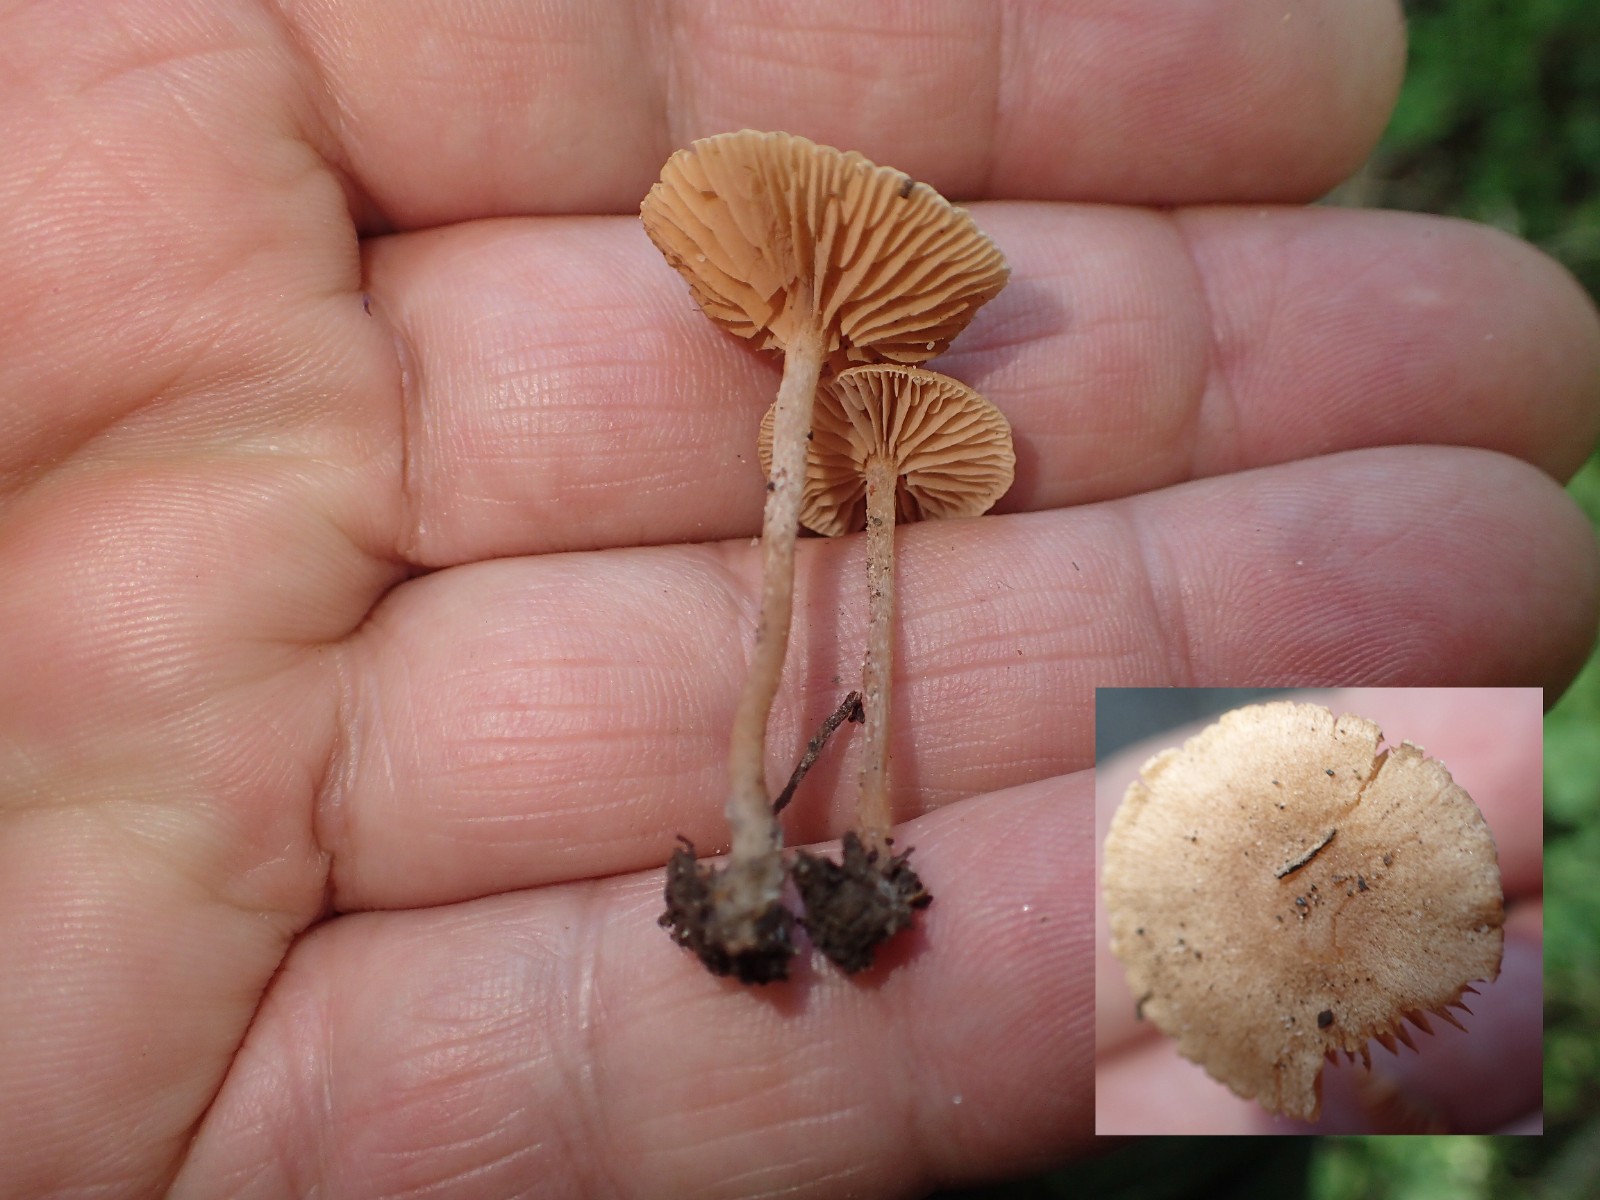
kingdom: Fungi
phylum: Basidiomycota
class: Agaricomycetes
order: Agaricales
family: Tubariaceae
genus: Tubaria
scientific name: Tubaria conspersa
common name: bleg fnughat
